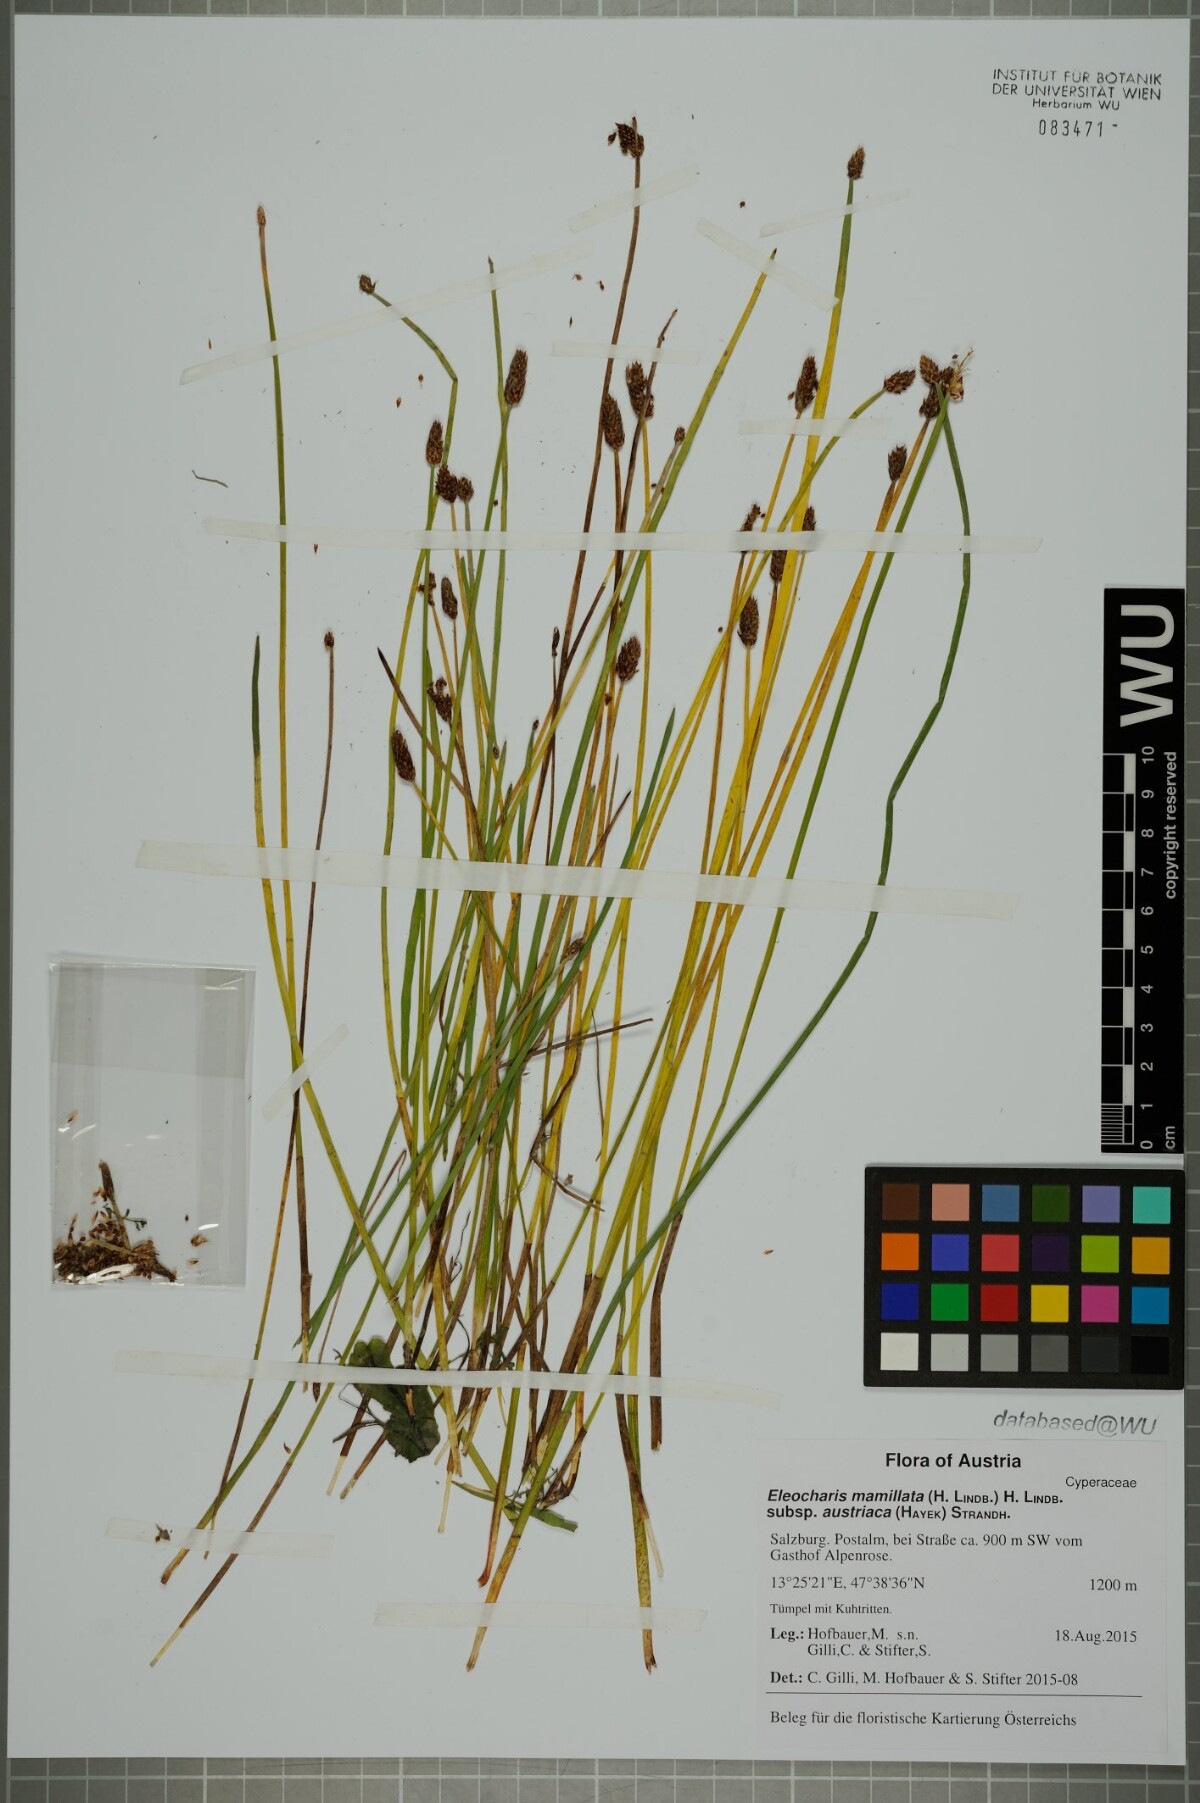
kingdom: Plantae
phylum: Tracheophyta
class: Liliopsida
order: Poales
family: Cyperaceae
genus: Eleocharis
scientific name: Eleocharis mamillata
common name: Northern spike-rush
